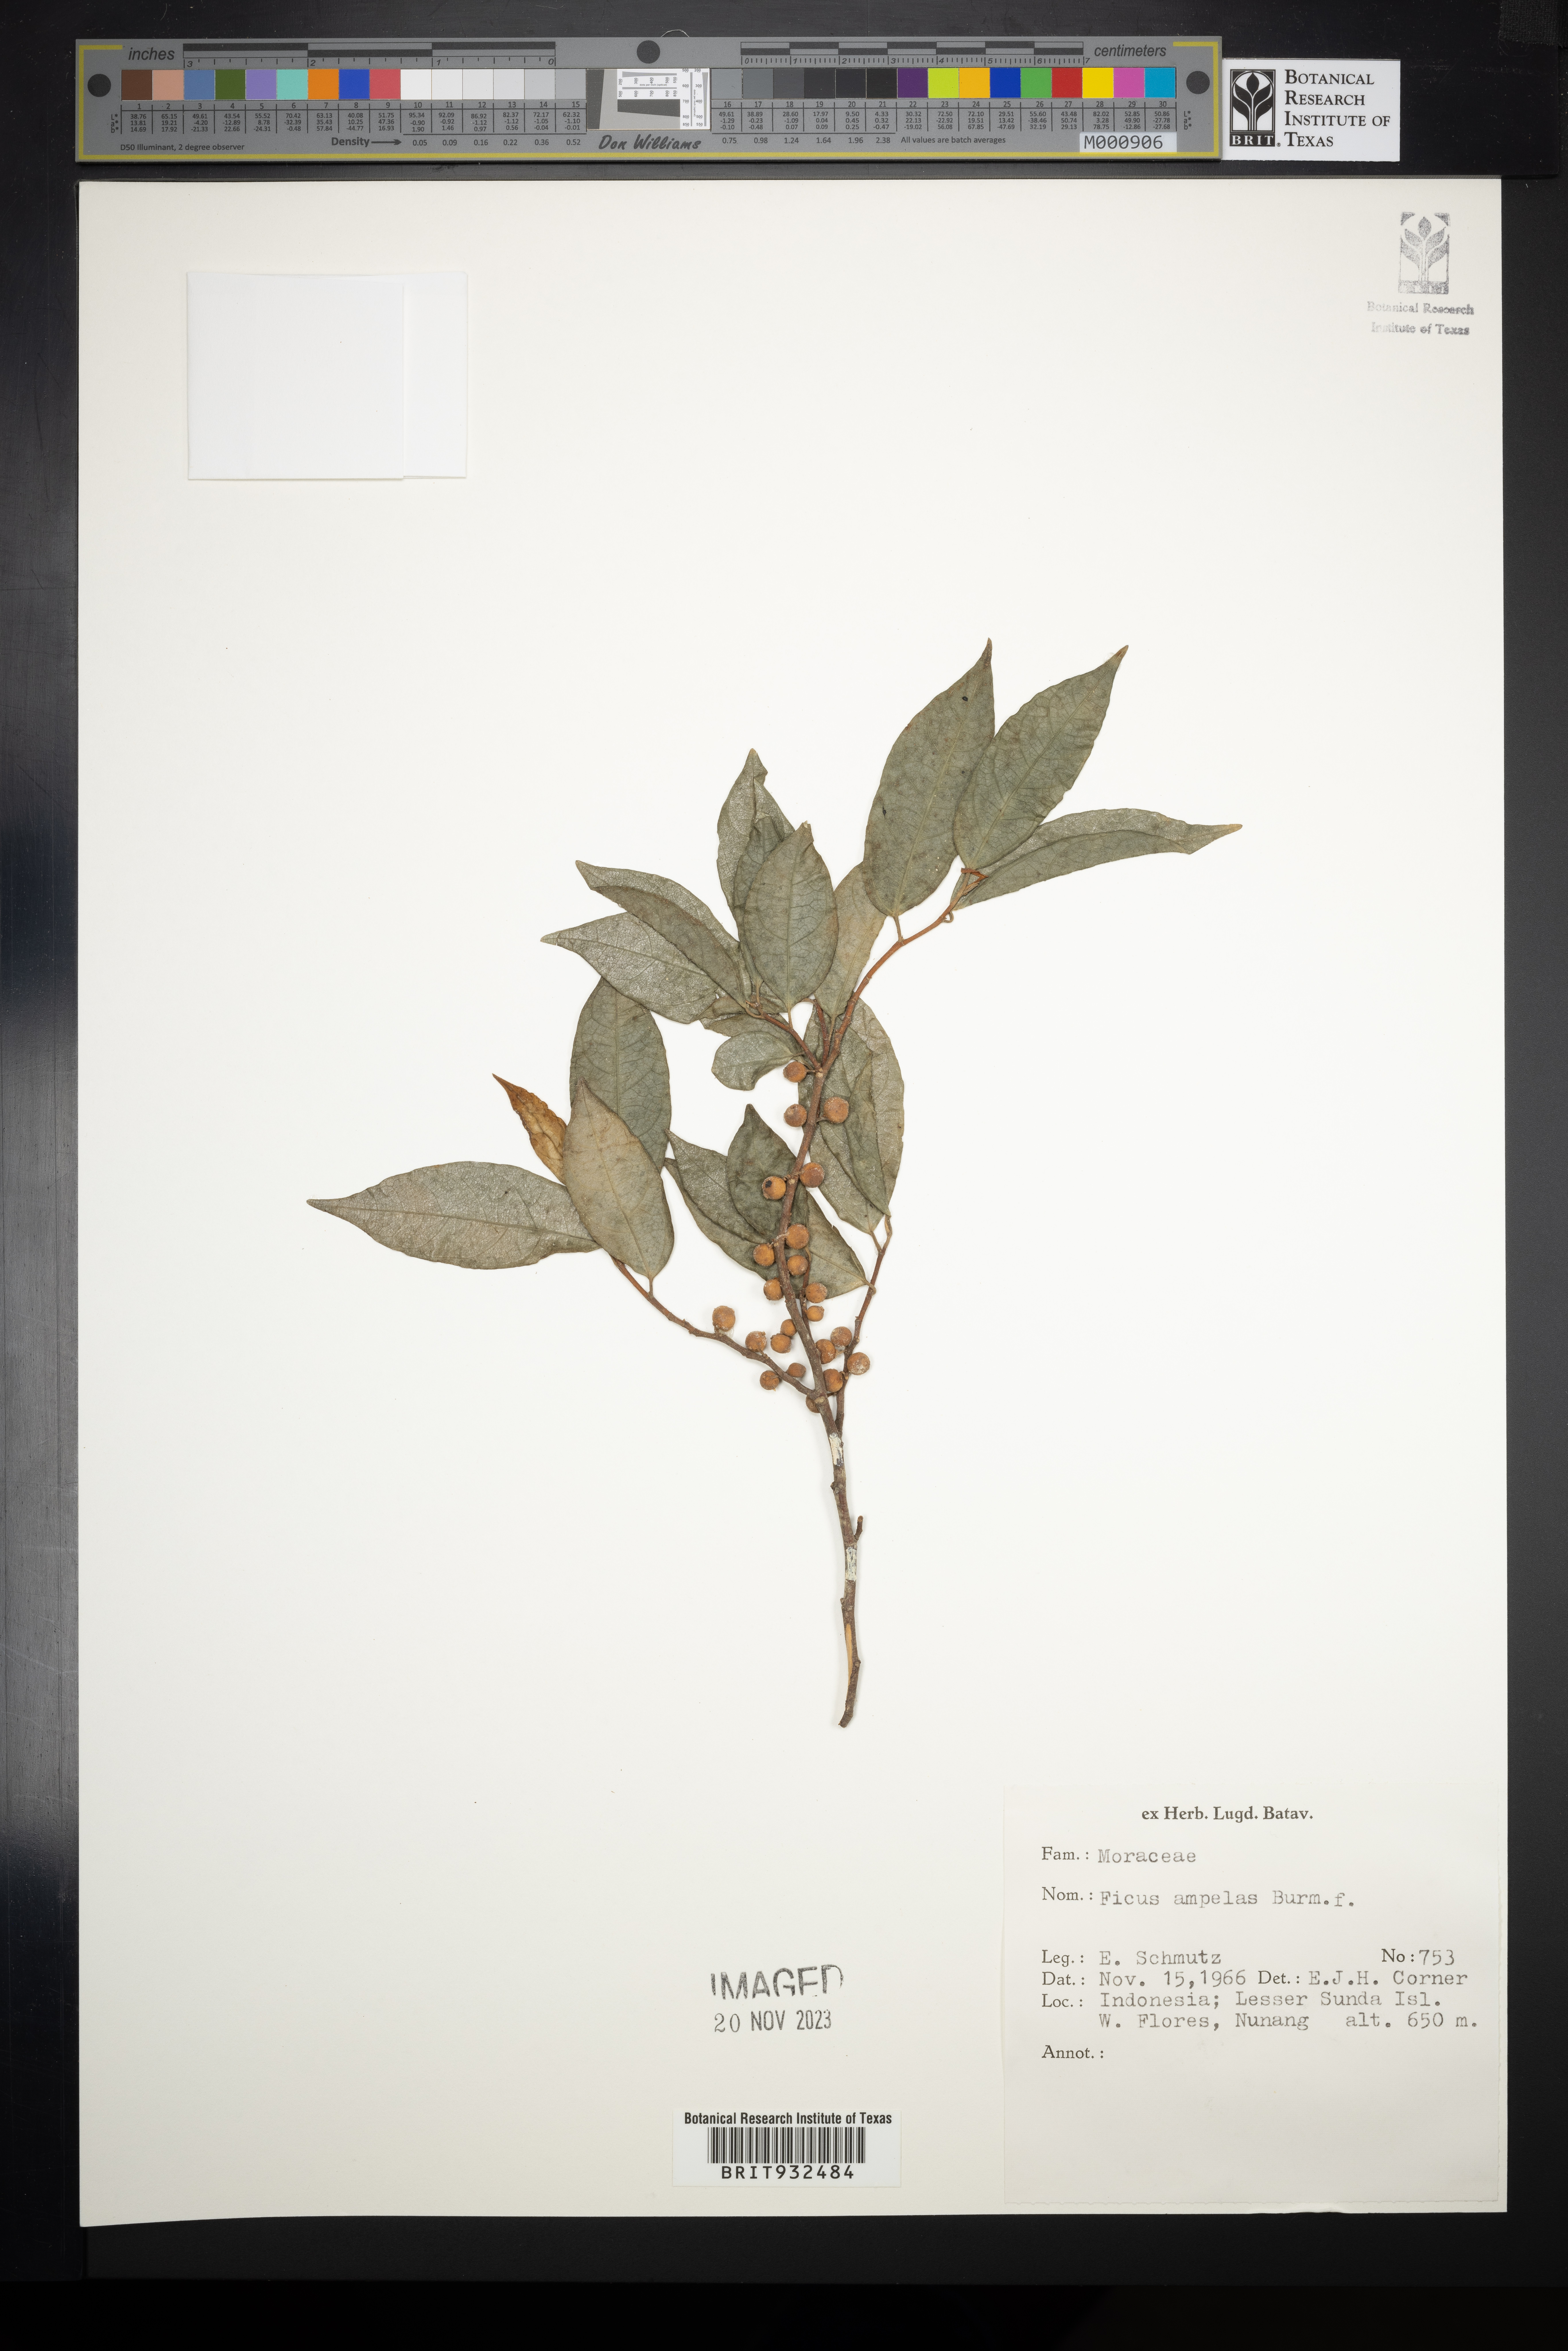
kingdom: Plantae
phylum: Tracheophyta
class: Magnoliopsida
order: Rosales
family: Moraceae
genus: Ficus
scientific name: Ficus ampelos
